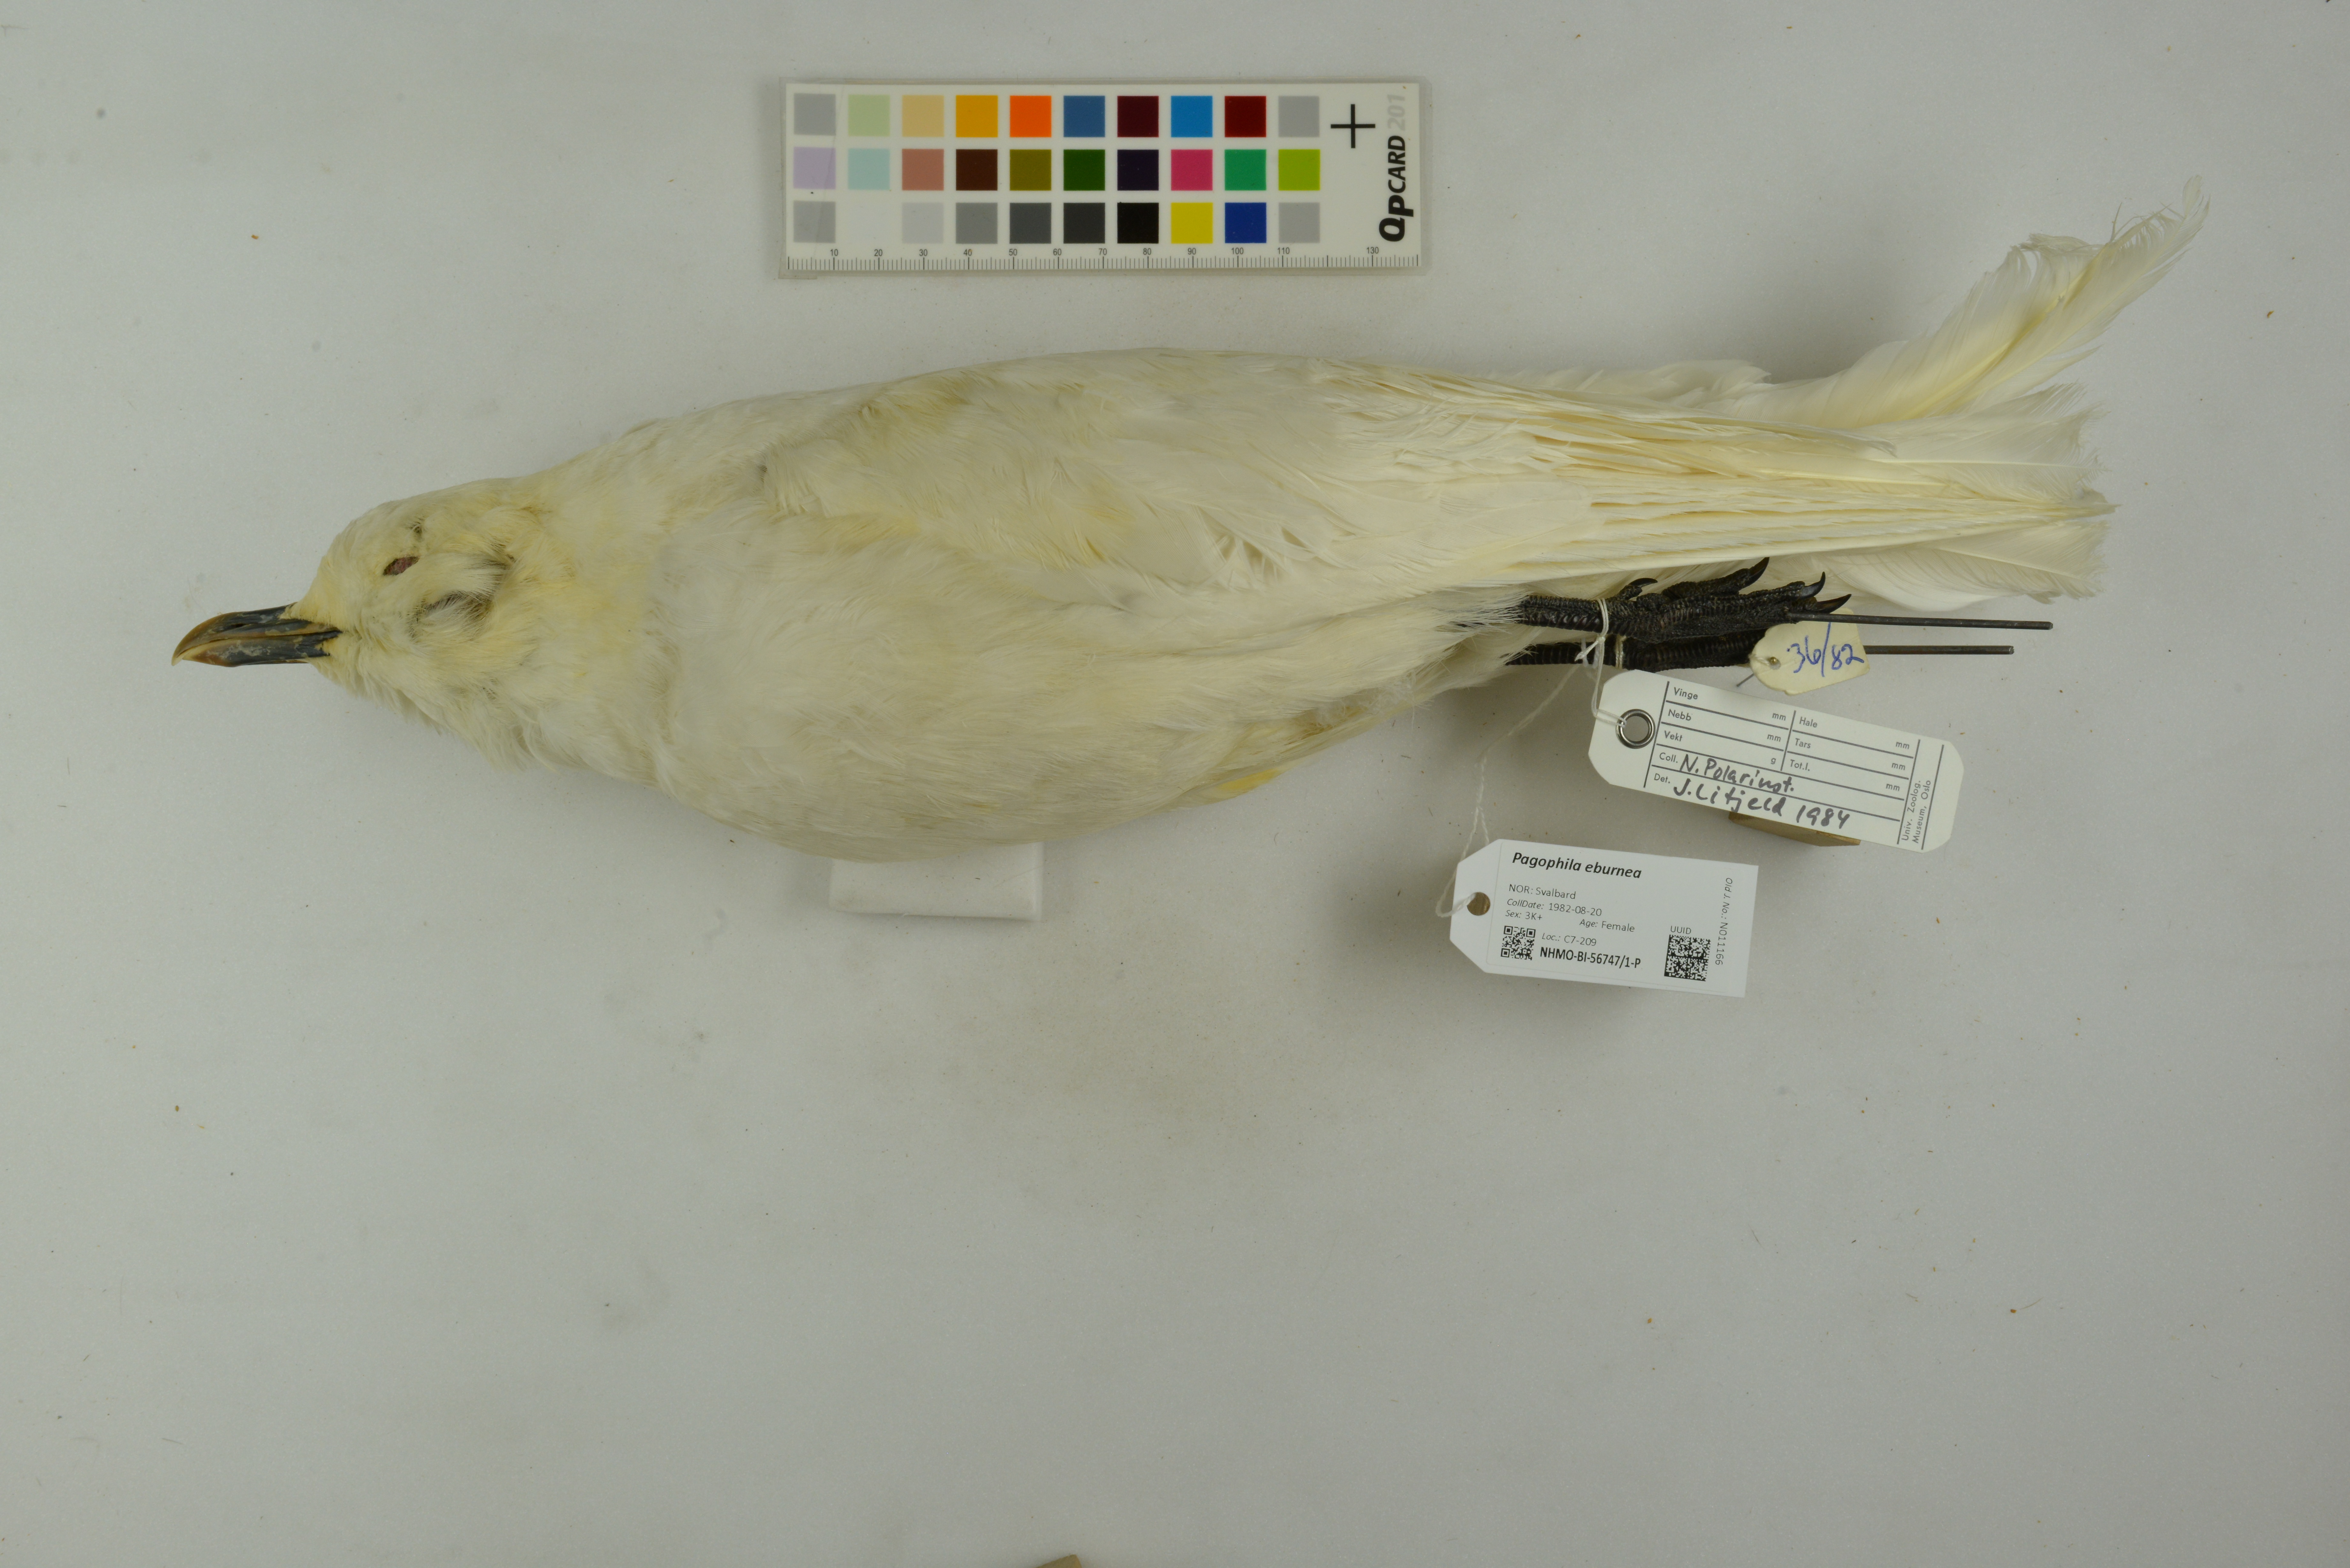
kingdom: Animalia
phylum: Chordata
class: Aves
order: Charadriiformes
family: Laridae
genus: Pagophila
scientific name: Pagophila eburnea
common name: Ivory gull
